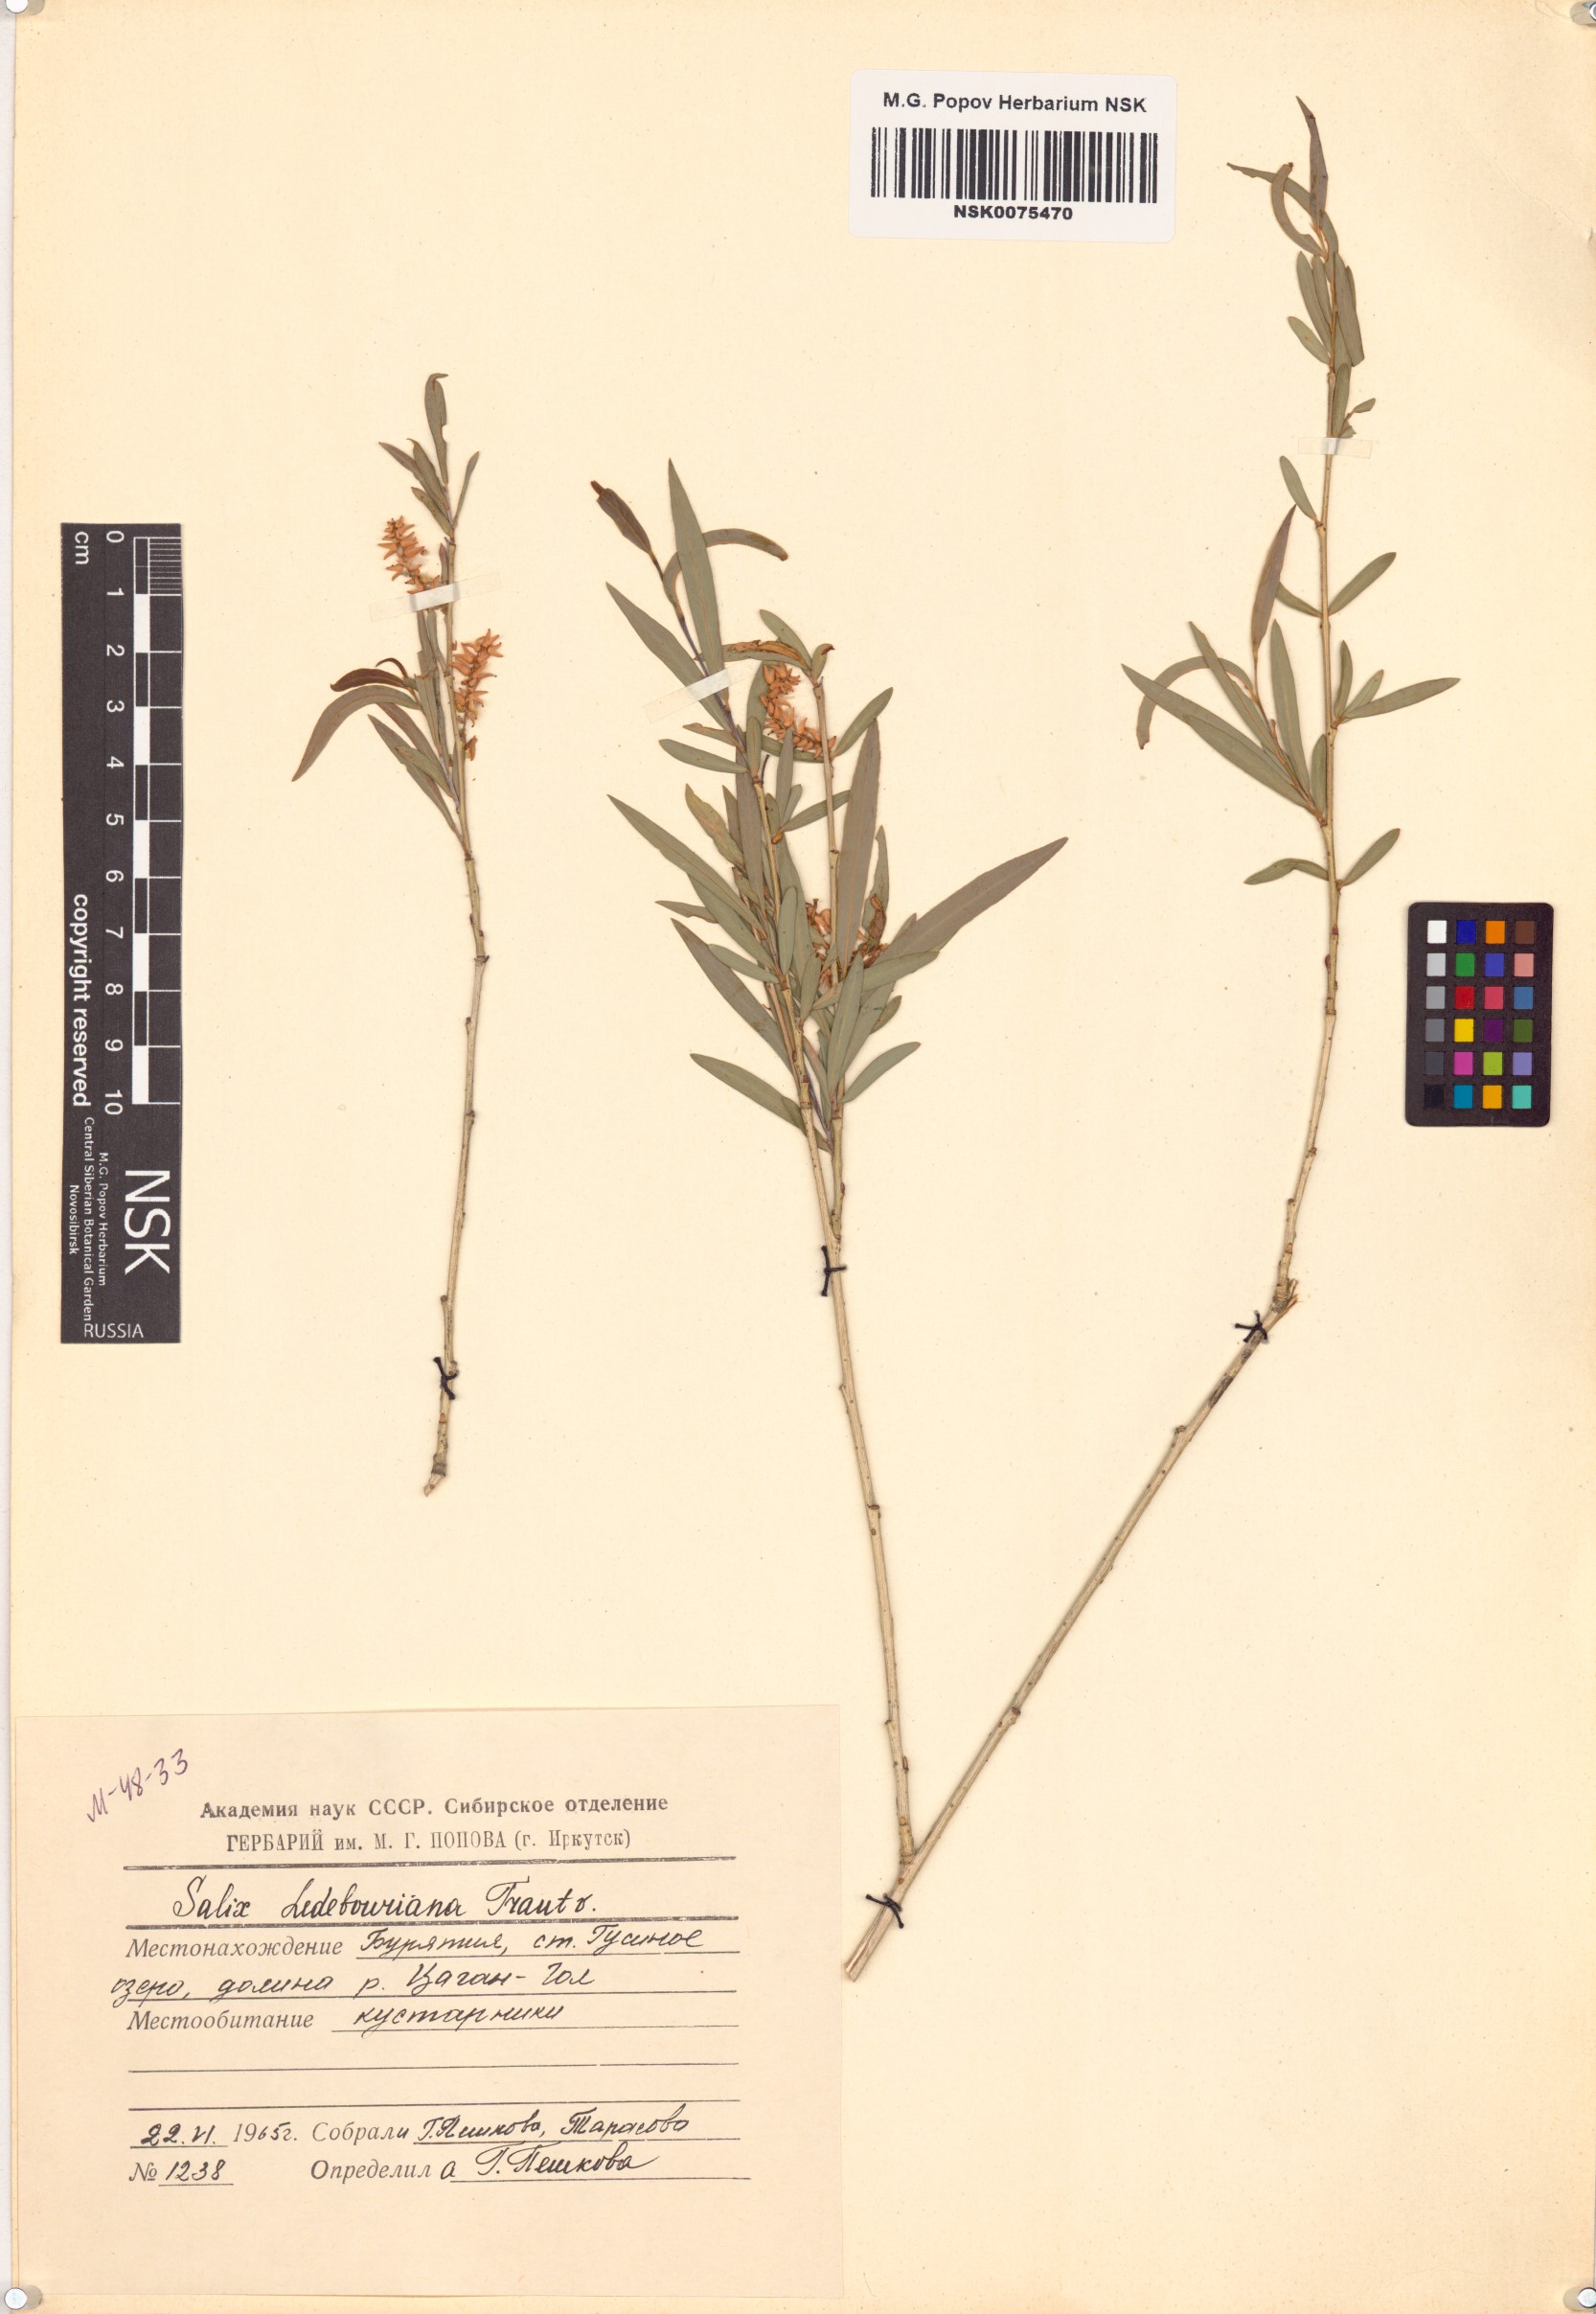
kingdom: Plantae
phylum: Tracheophyta
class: Magnoliopsida
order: Malpighiales
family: Salicaceae
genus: Salix
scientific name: Salix ledebouriana
